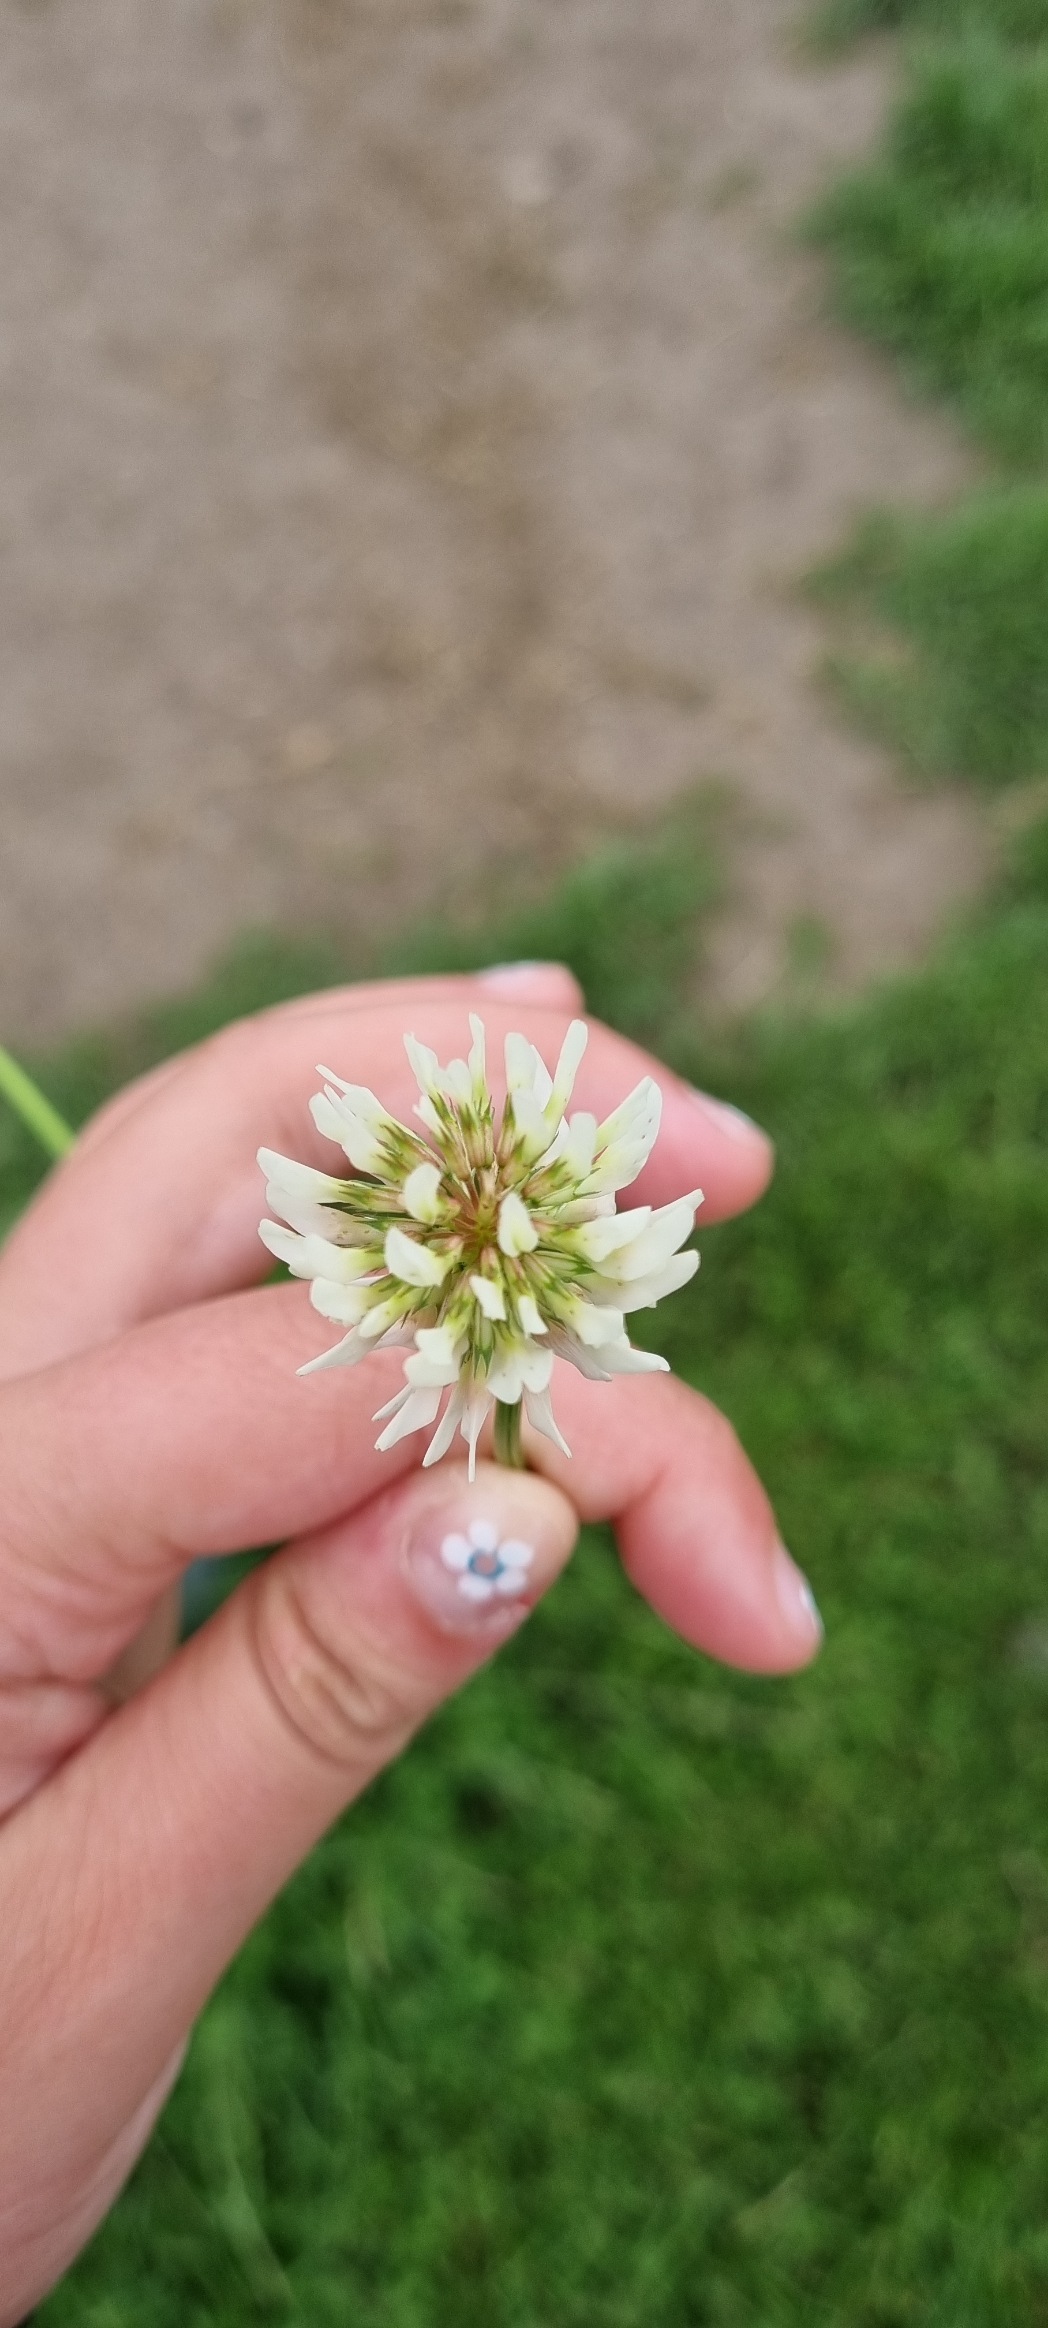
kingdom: Plantae
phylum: Tracheophyta
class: Magnoliopsida
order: Fabales
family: Fabaceae
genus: Trifolium
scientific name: Trifolium repens
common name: Hvid-kløver
